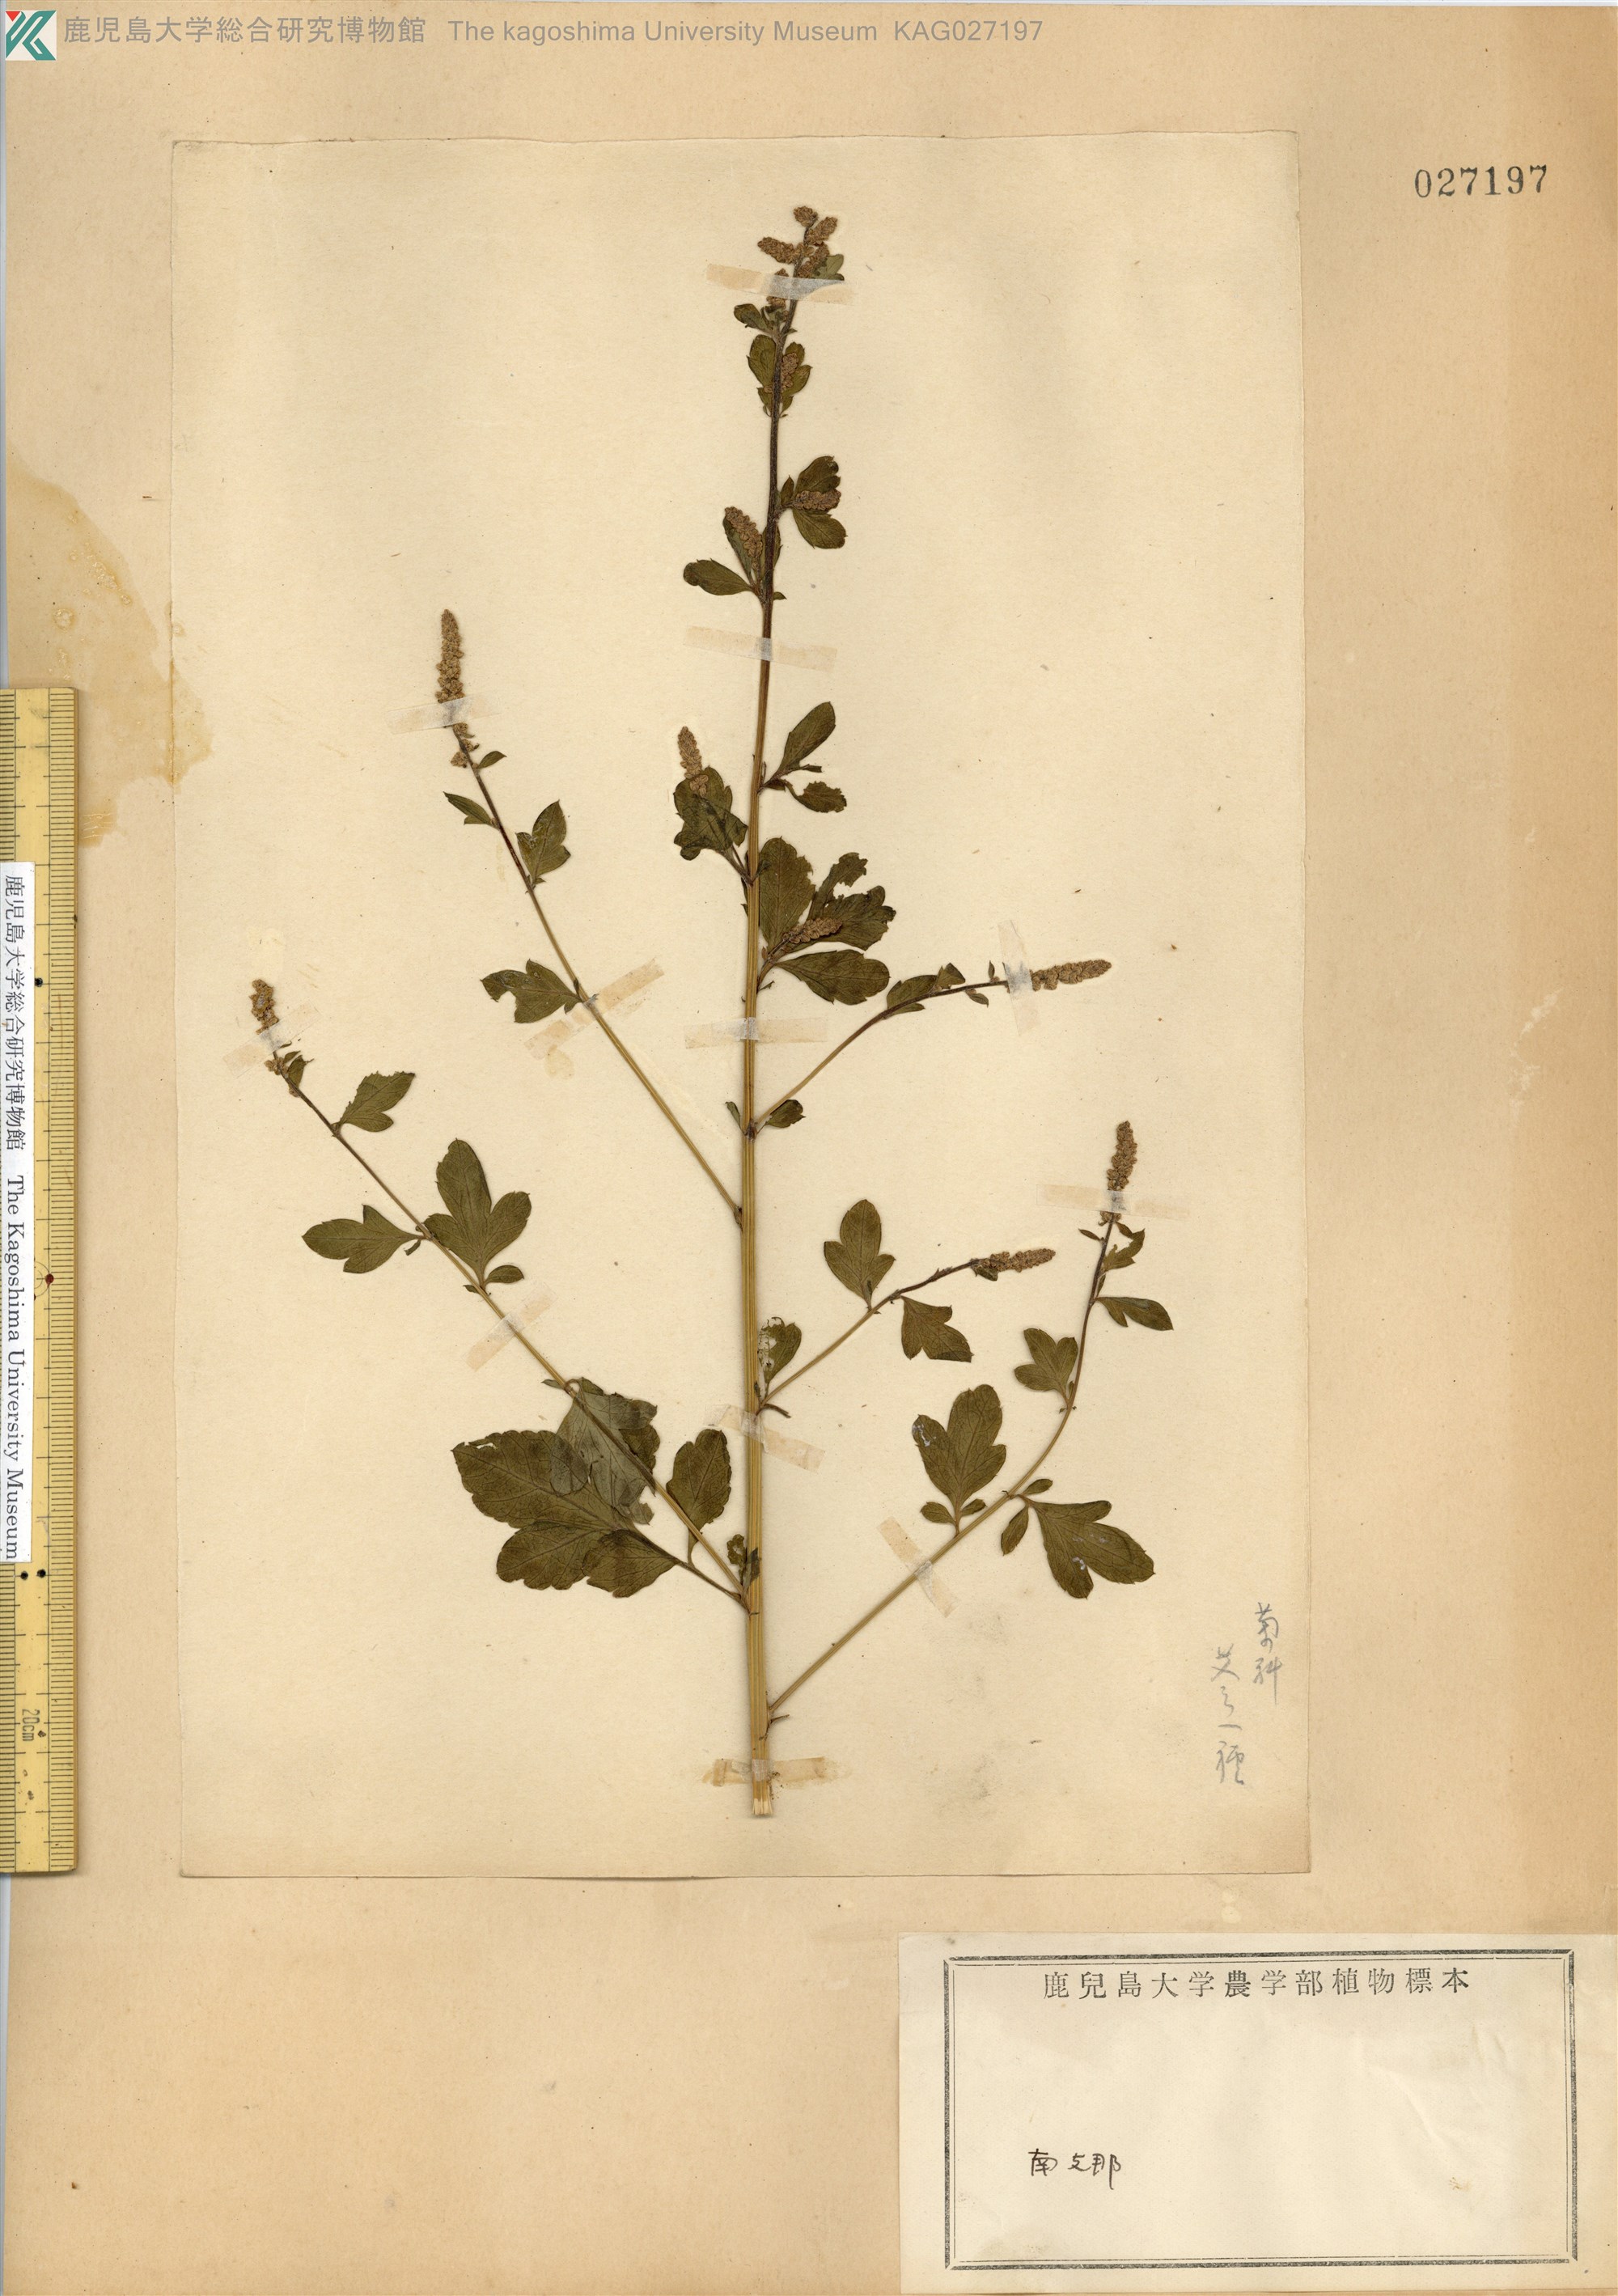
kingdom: Plantae
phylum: Tracheophyta
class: Magnoliopsida
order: Asterales
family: Asteraceae
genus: Artemisia
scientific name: Artemisia lactiflora
